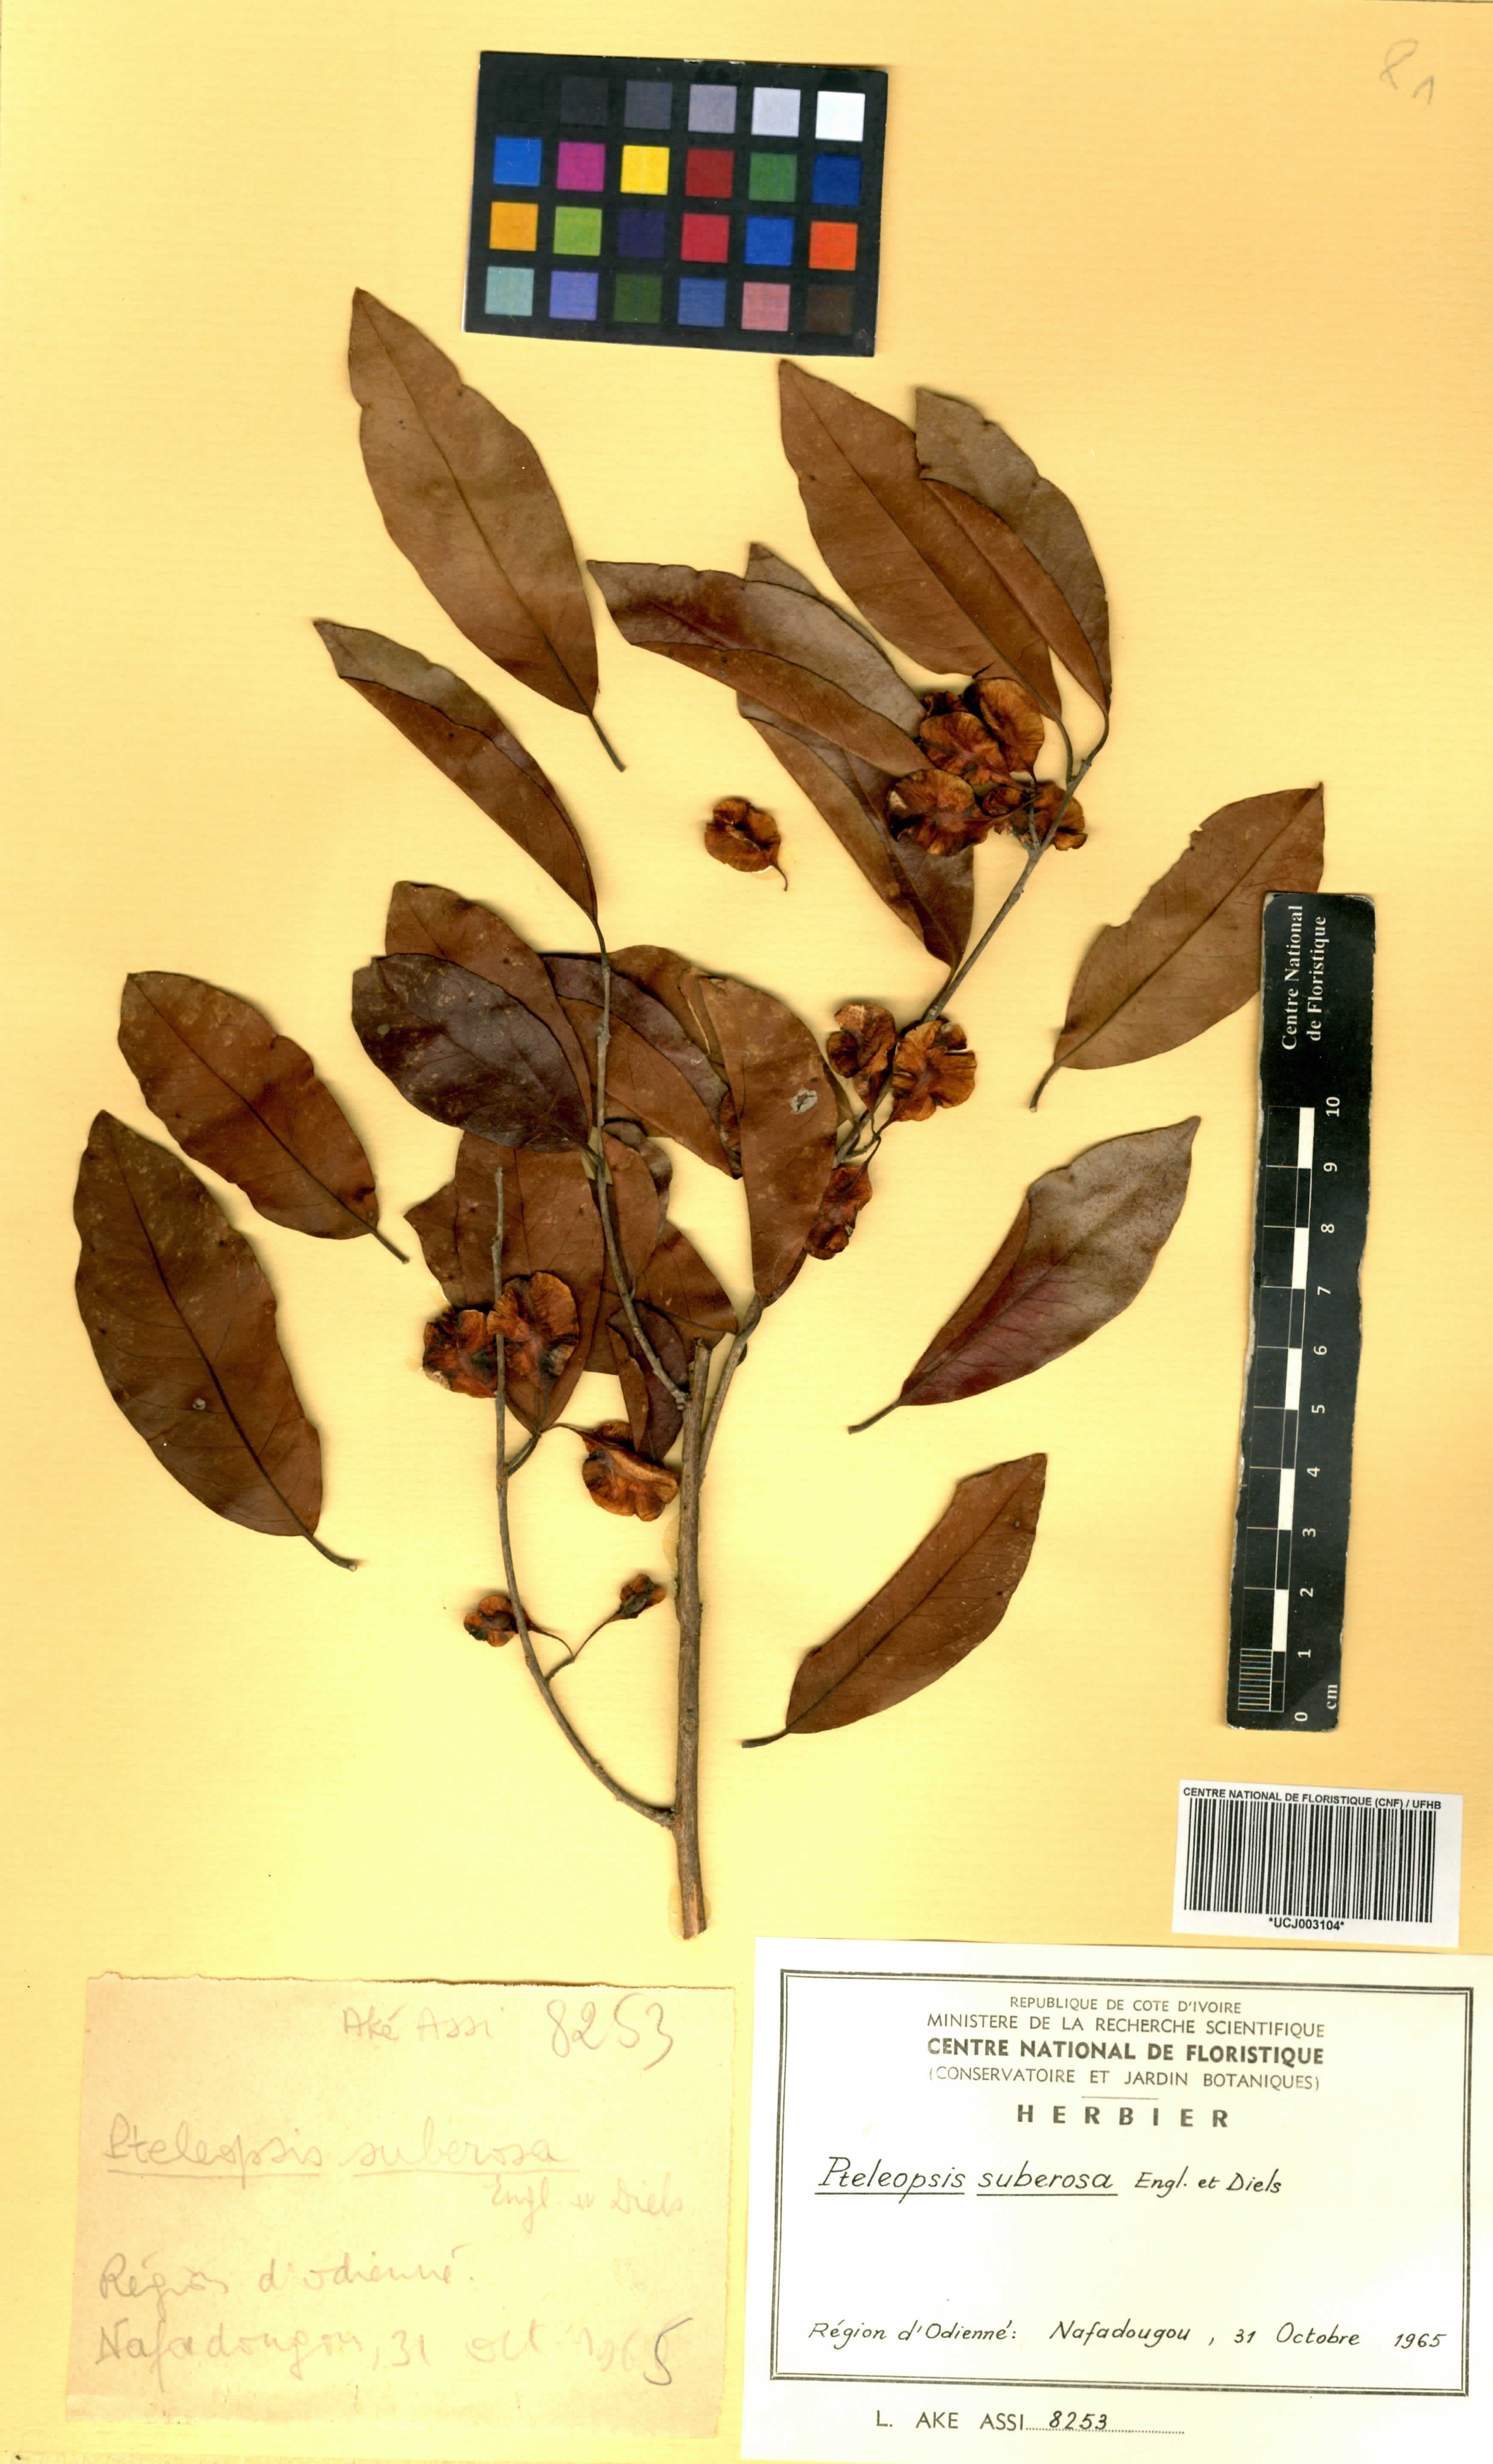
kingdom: Plantae
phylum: Tracheophyta
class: Magnoliopsida
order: Myrtales
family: Combretaceae
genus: Terminalia
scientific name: Terminalia engleri
